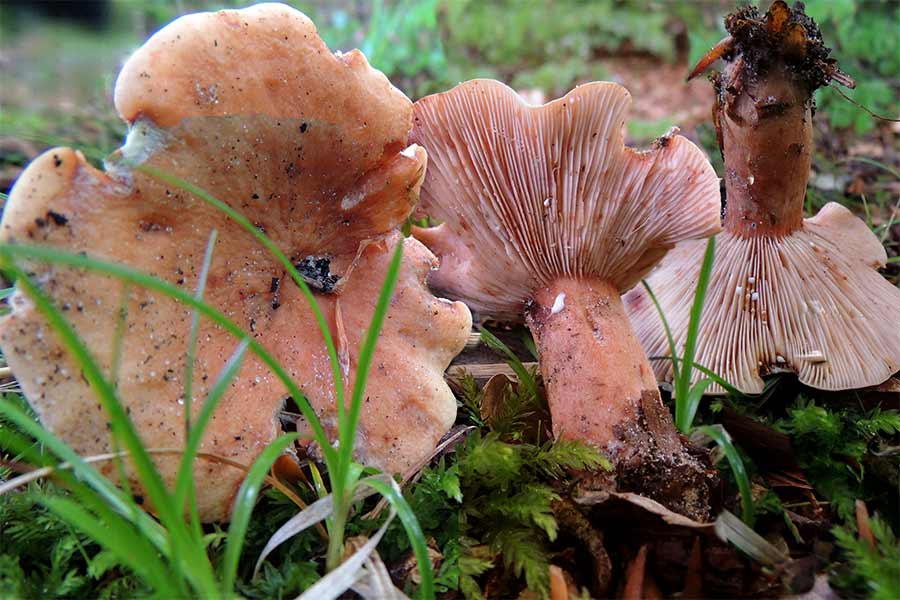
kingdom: Fungi
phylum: Basidiomycota
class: Agaricomycetes
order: Russulales
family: Russulaceae
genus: Lactarius
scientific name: Lactarius rubrocinctus
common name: halsbånd-mælkehat
